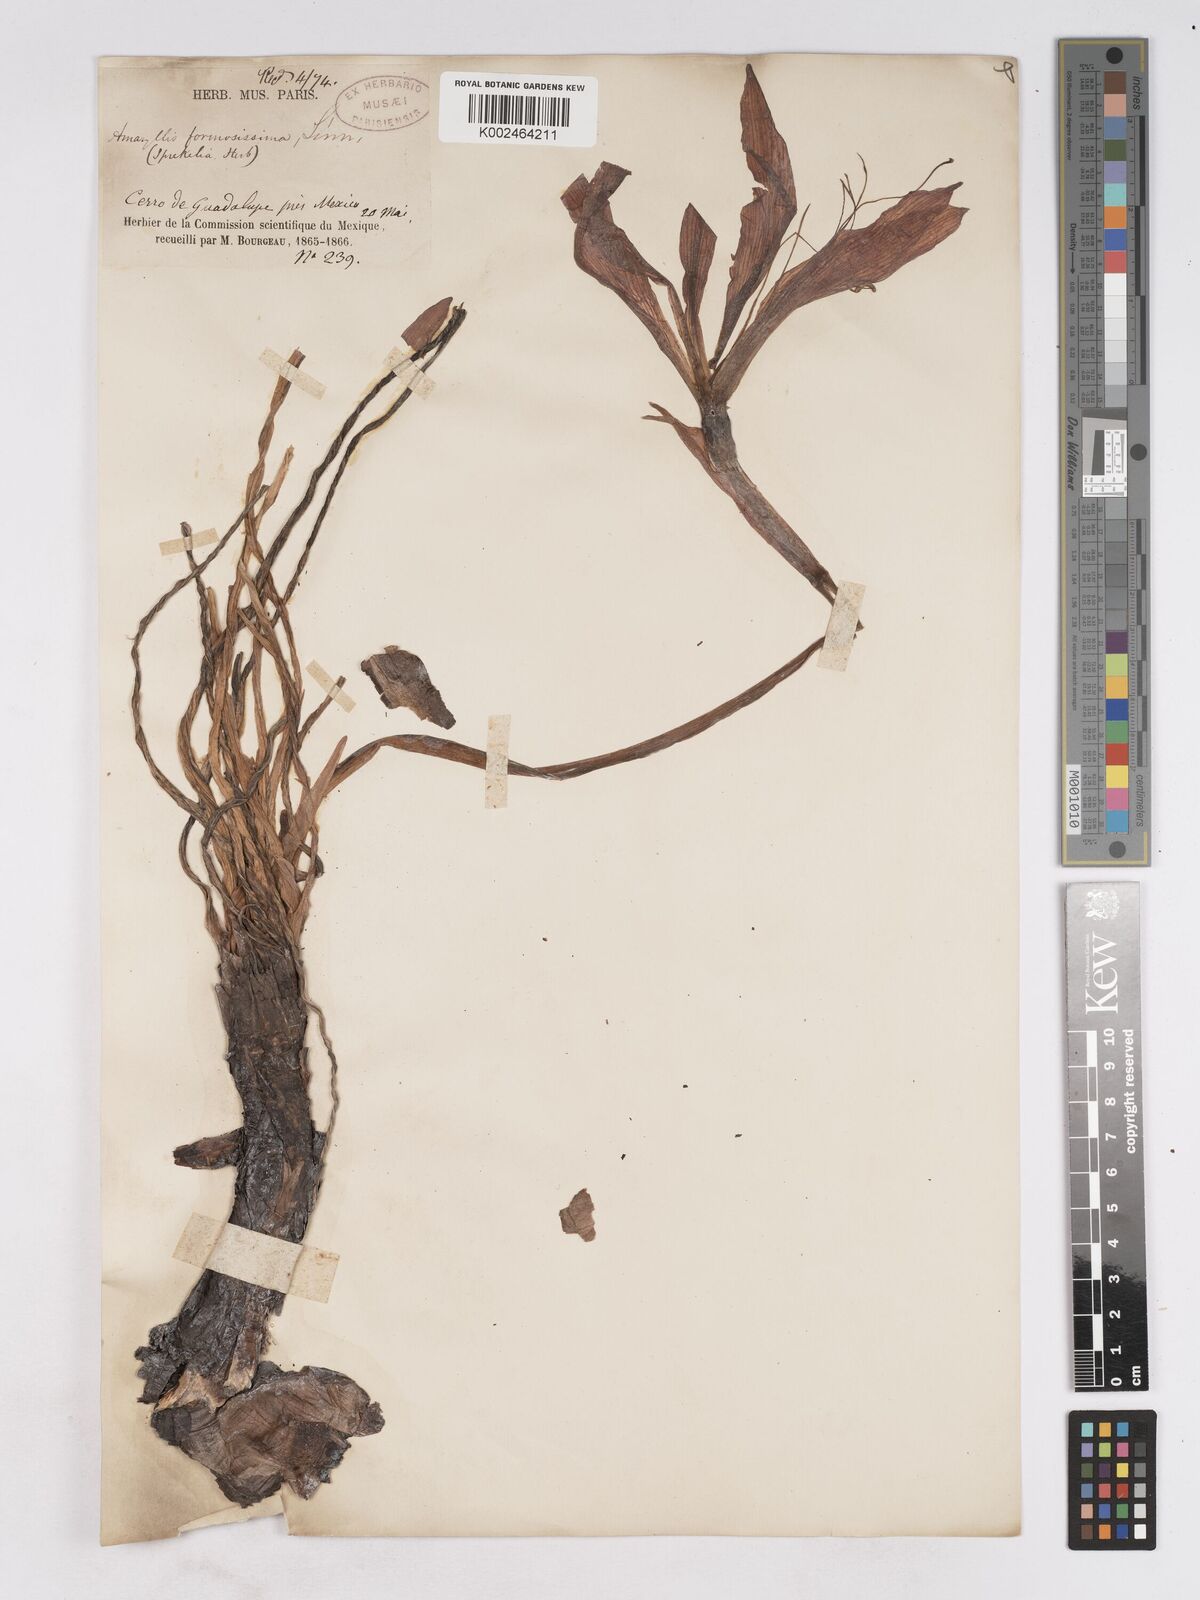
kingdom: Plantae
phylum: Tracheophyta
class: Liliopsida
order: Asparagales
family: Amaryllidaceae
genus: Sprekelia
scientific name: Sprekelia formosissima
